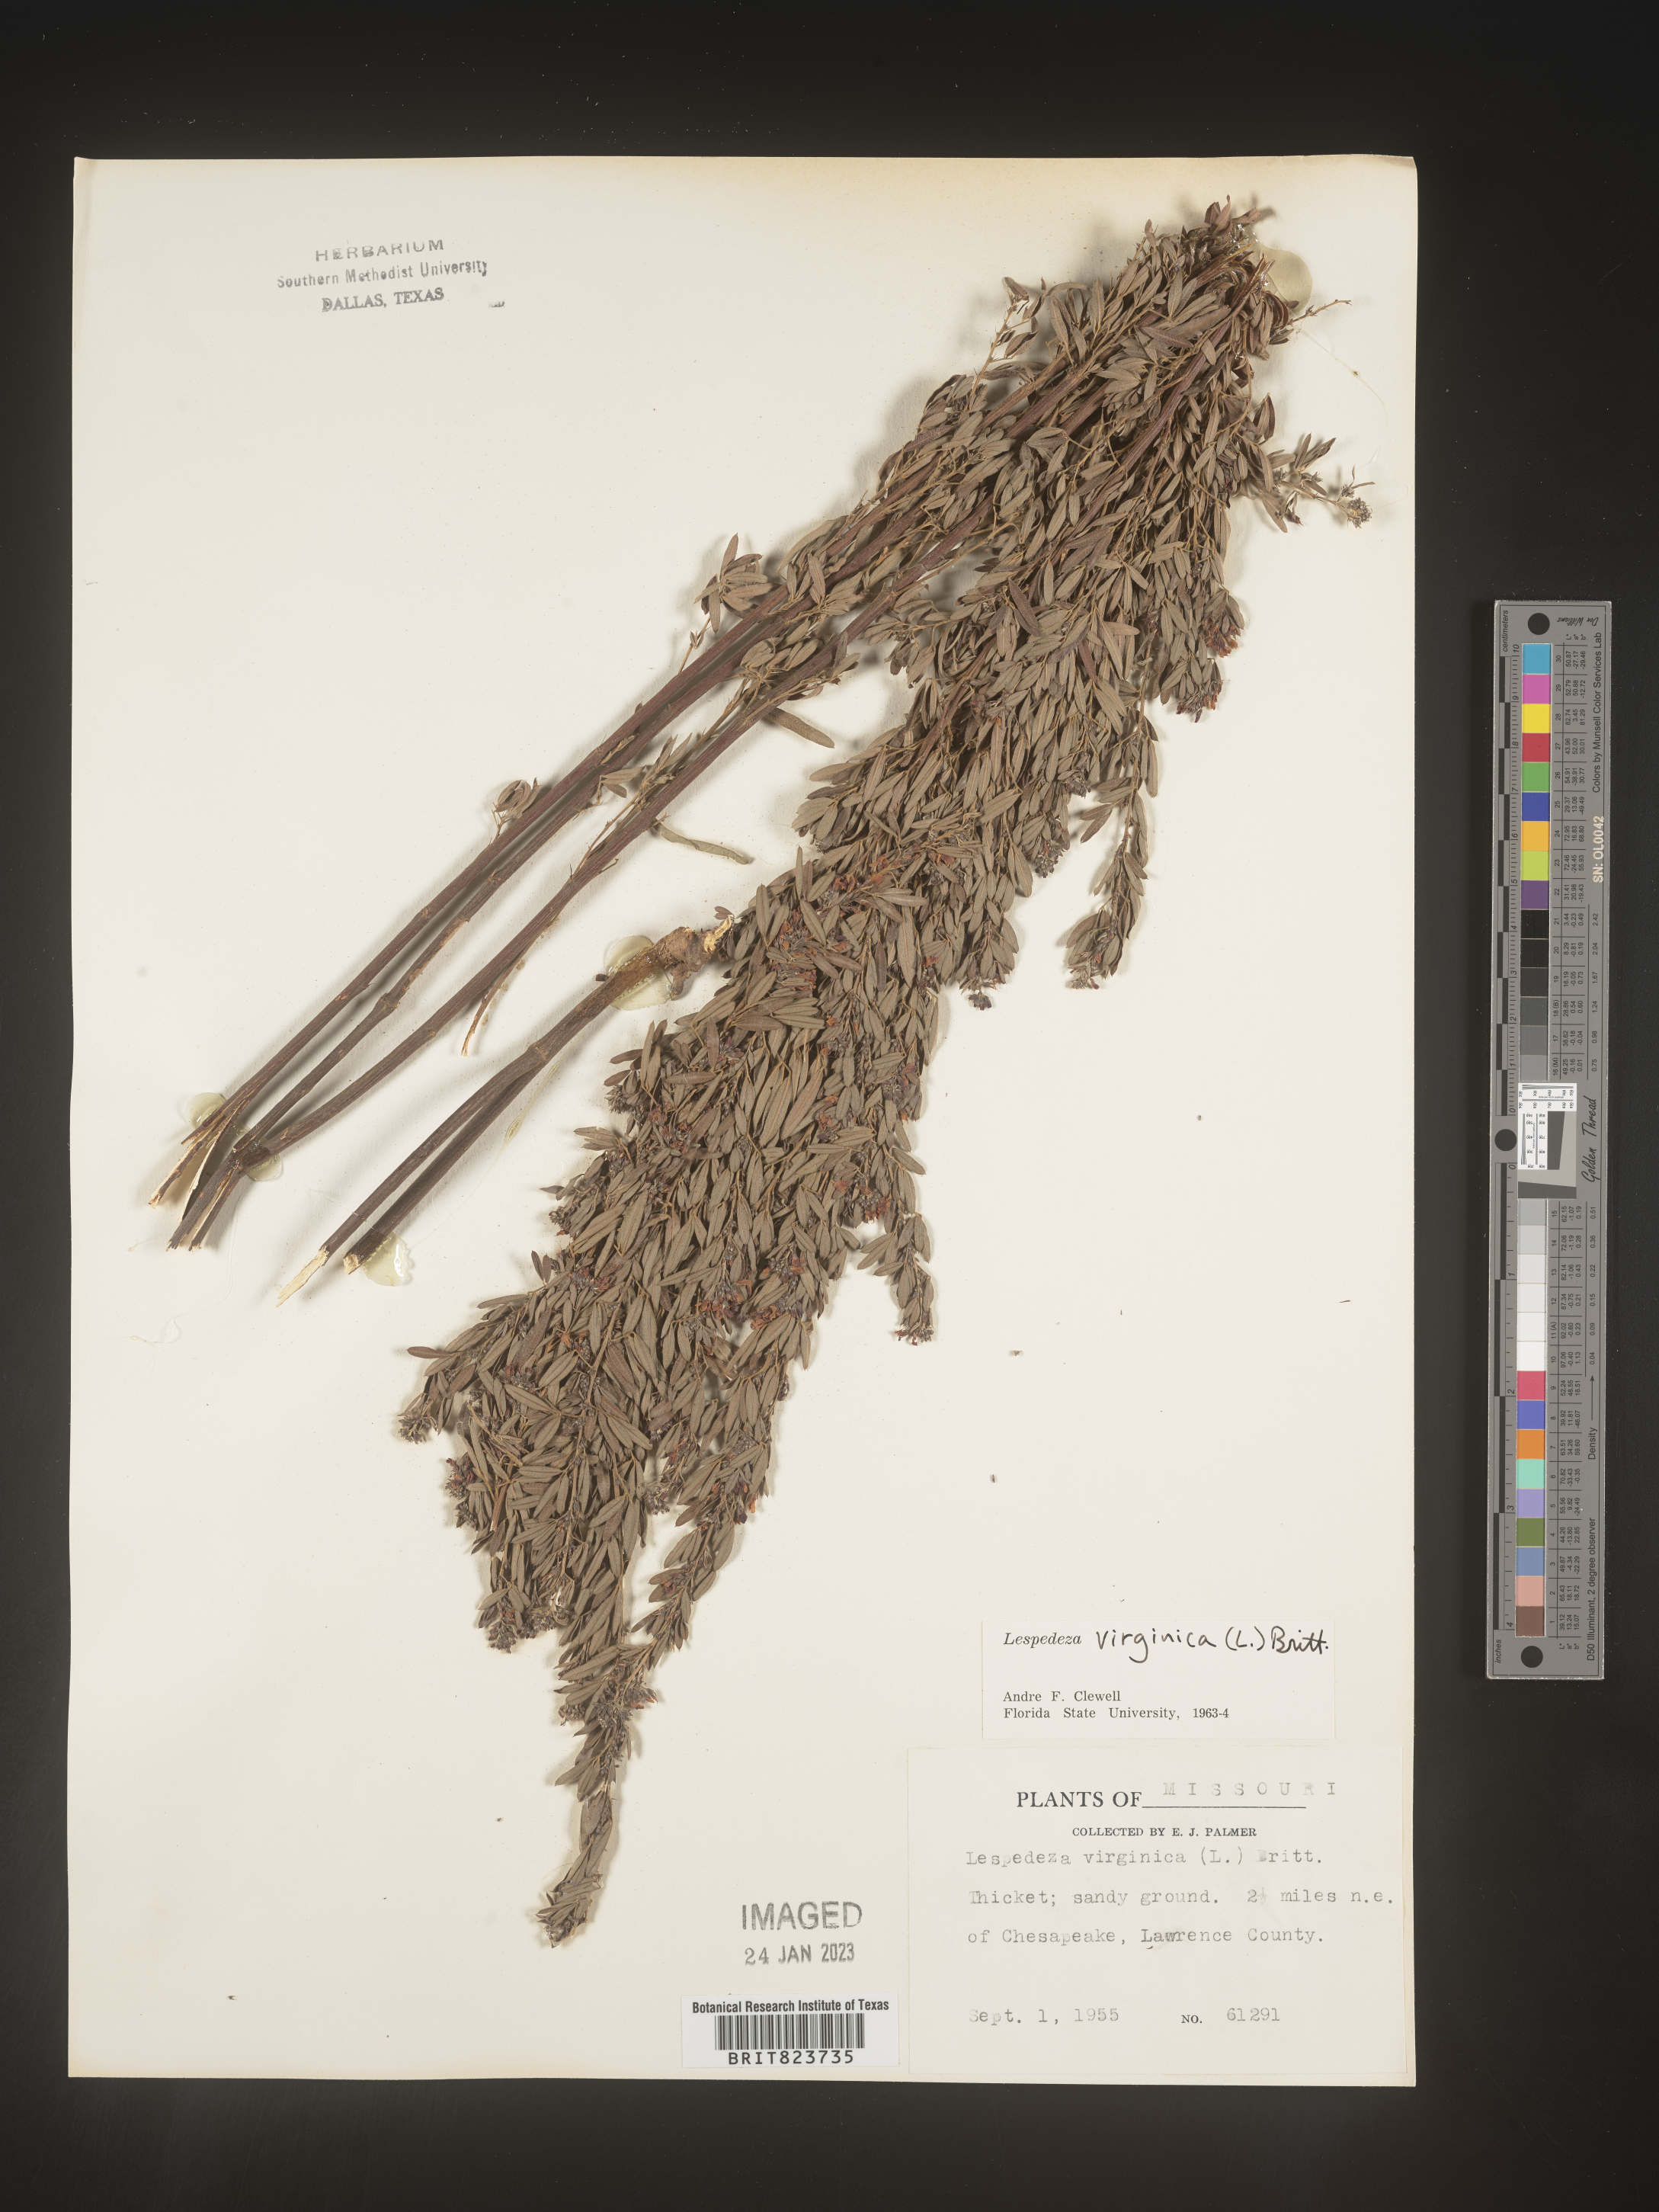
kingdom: Plantae
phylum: Tracheophyta
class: Magnoliopsida
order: Fabales
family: Fabaceae
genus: Lespedeza
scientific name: Lespedeza virginica
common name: Slender bush-clover
